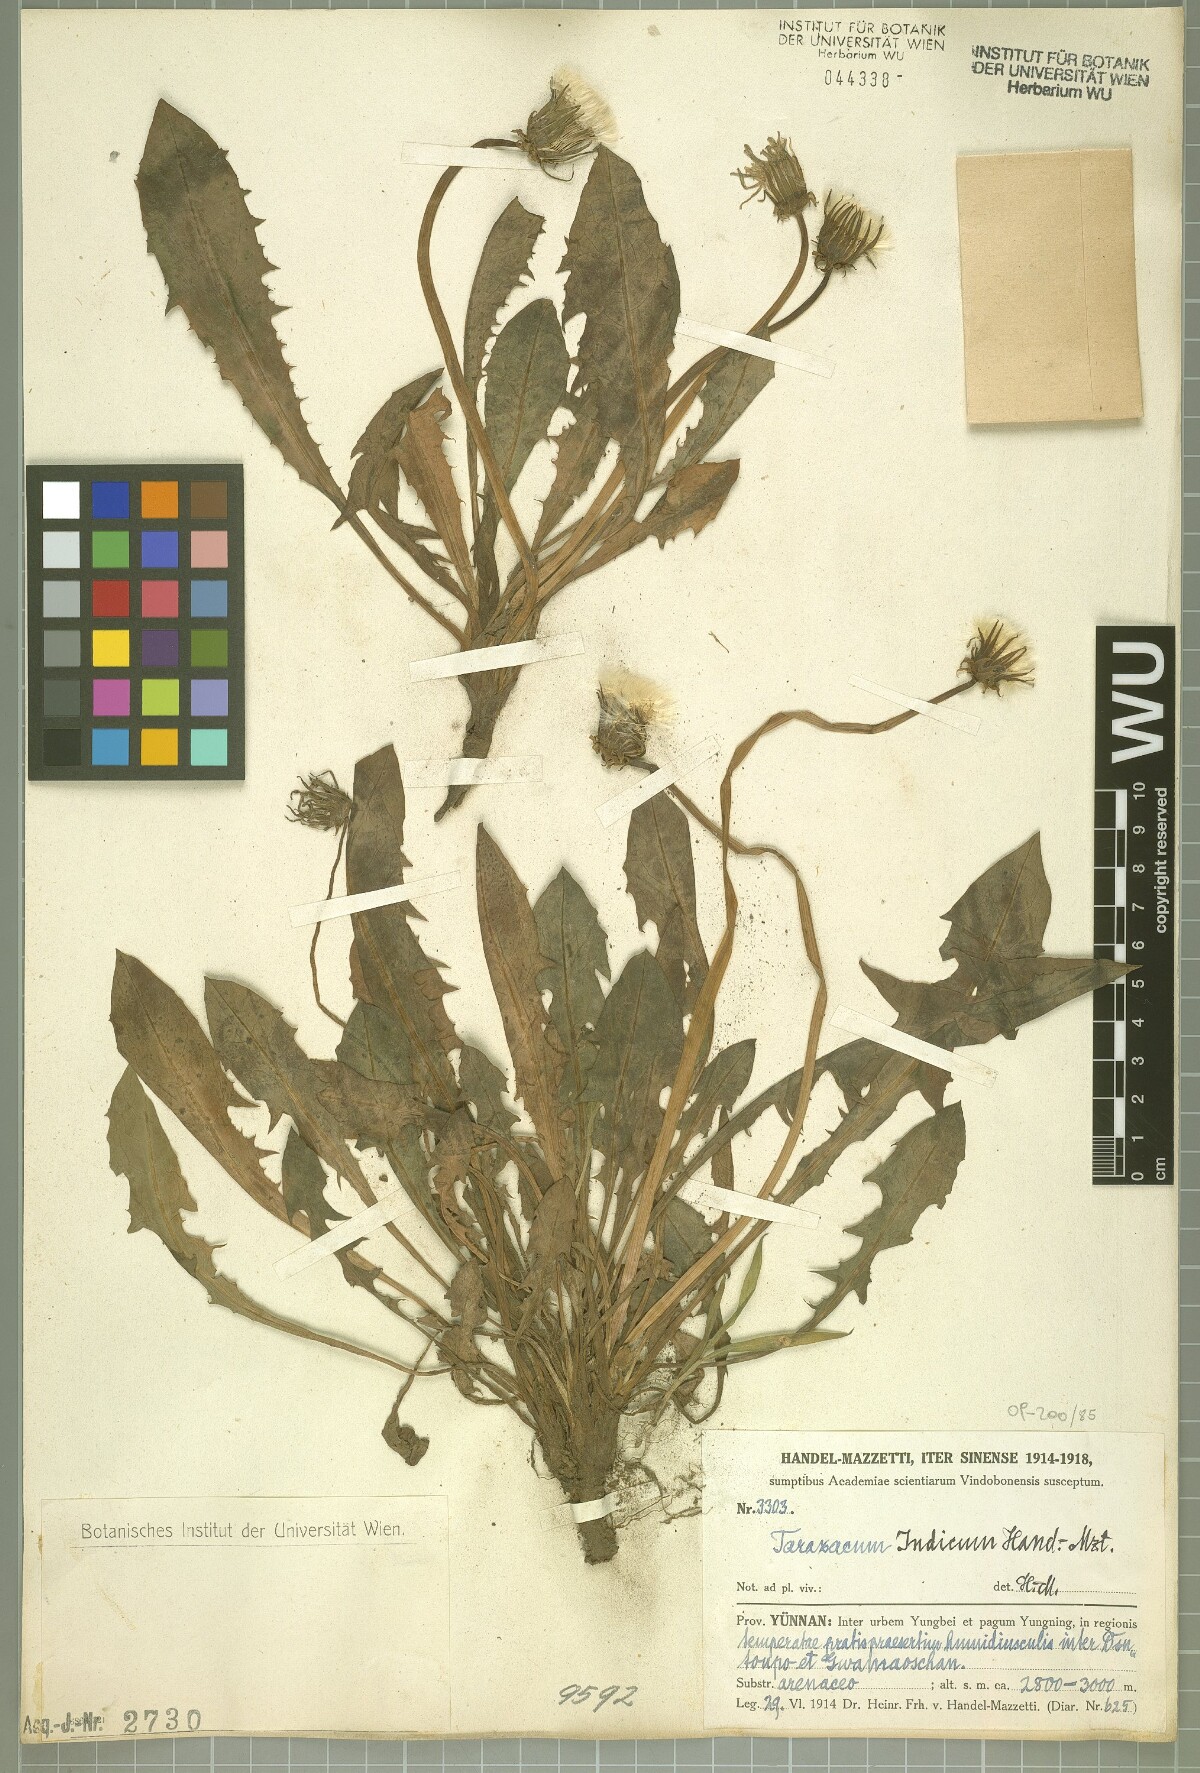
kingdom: Plantae
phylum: Tracheophyta
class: Magnoliopsida
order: Asterales
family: Asteraceae
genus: Taraxacum
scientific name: Taraxacum indicum
